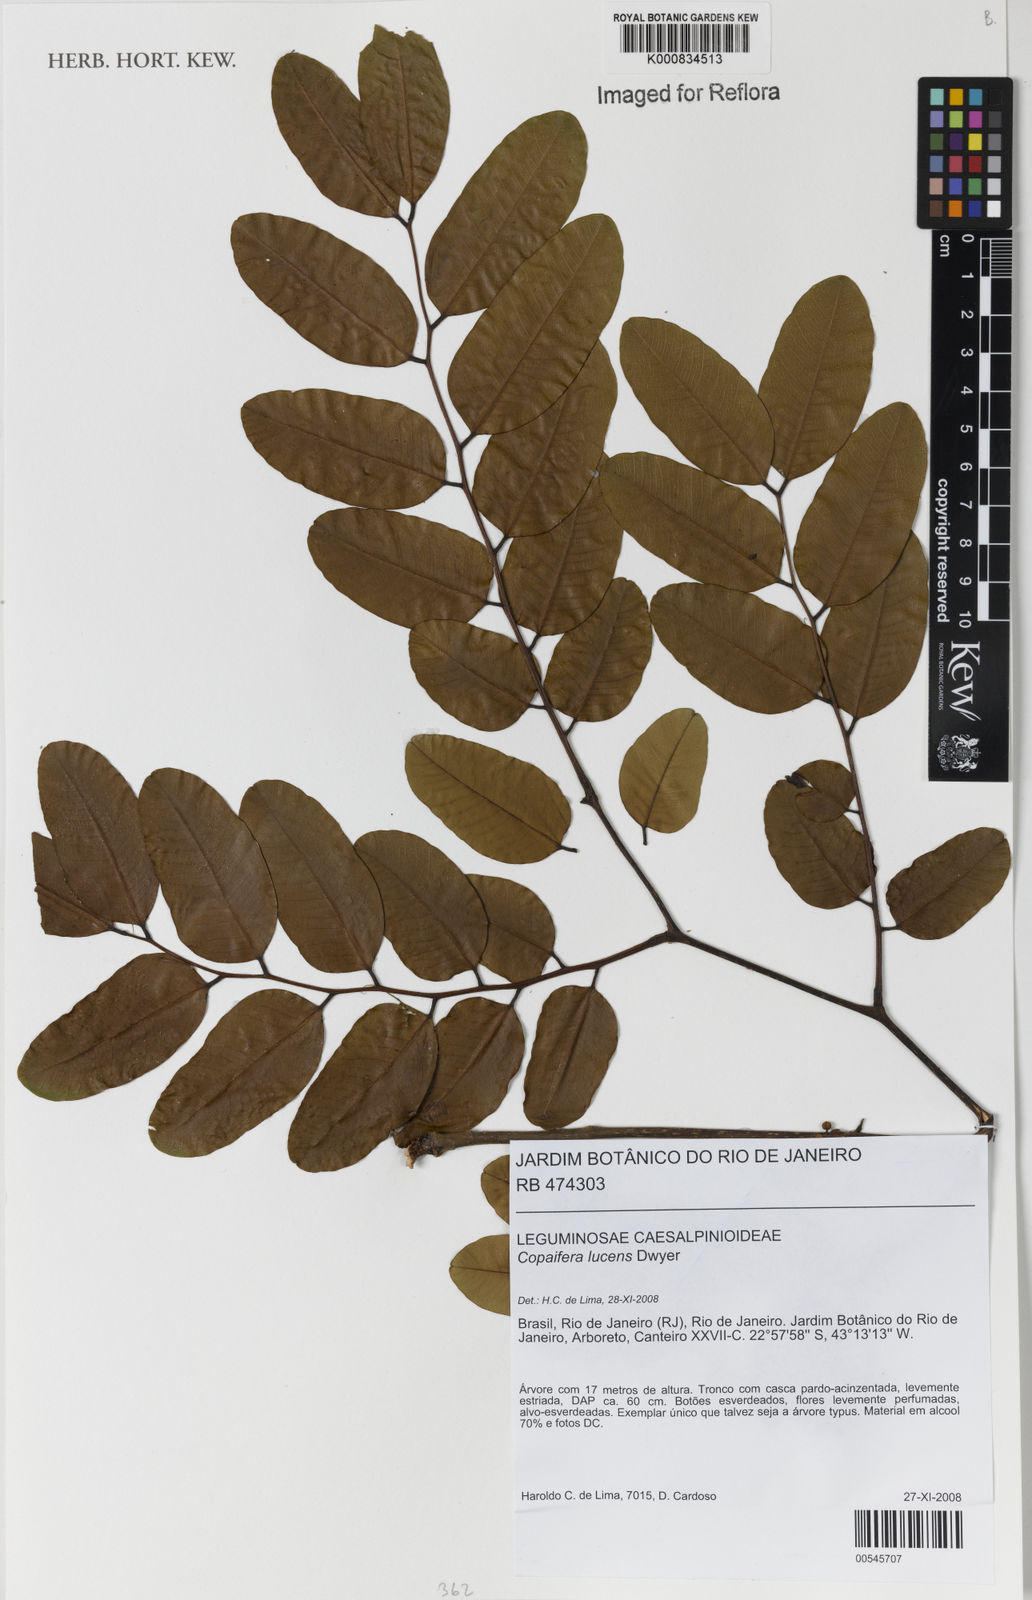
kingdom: Plantae
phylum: Tracheophyta
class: Magnoliopsida
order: Fabales
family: Fabaceae
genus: Copaifera
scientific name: Copaifera
